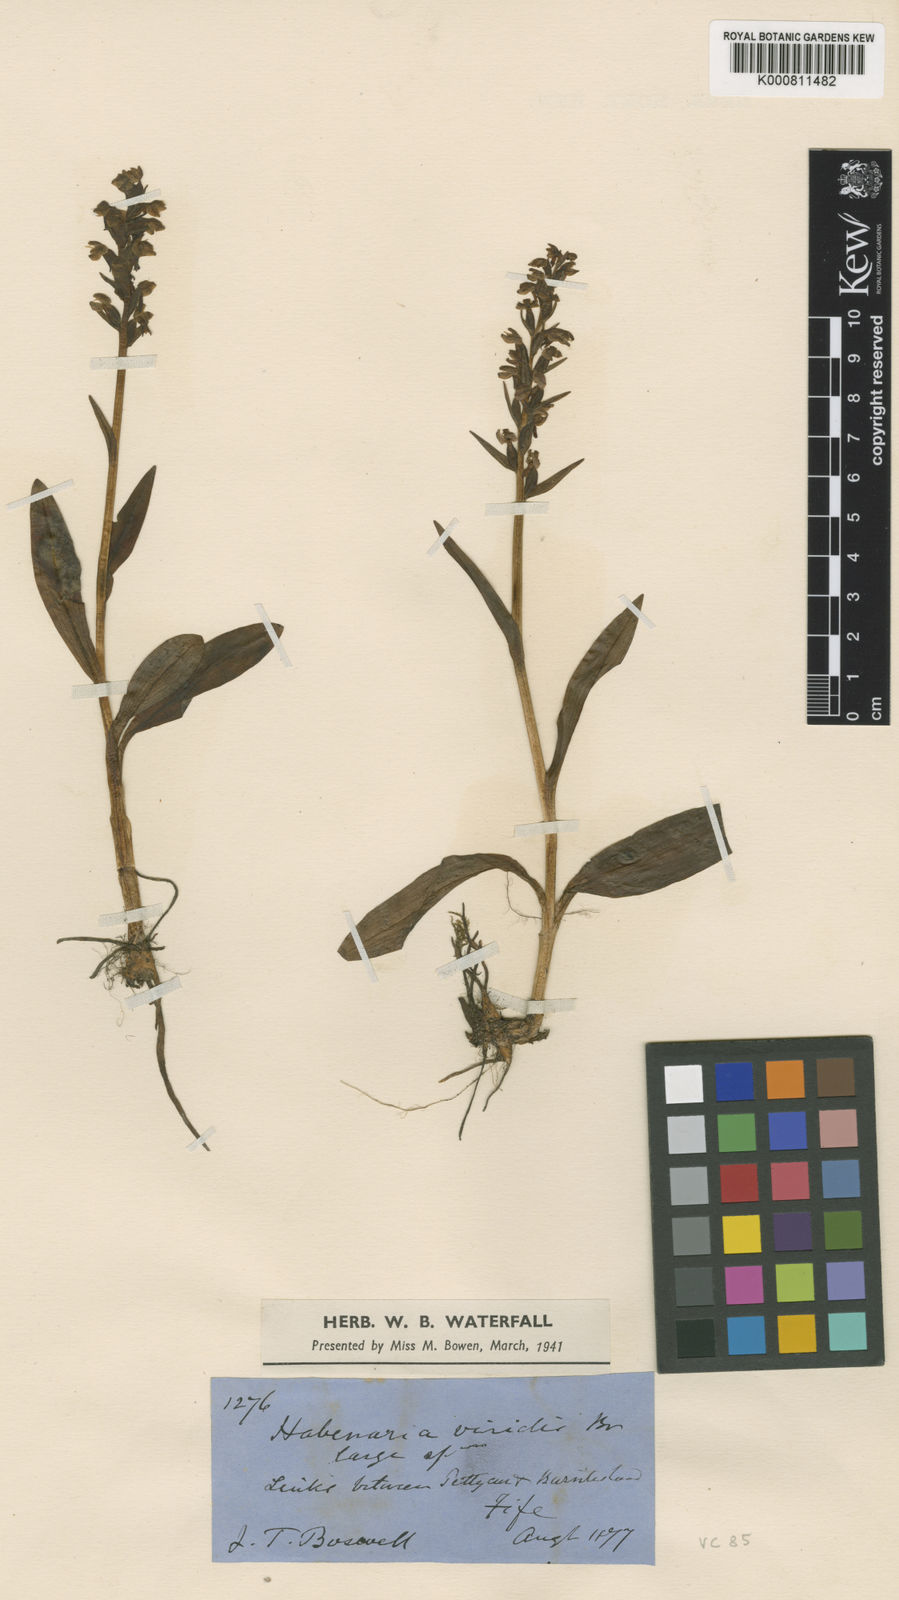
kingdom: Plantae
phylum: Tracheophyta
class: Liliopsida
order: Asparagales
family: Orchidaceae
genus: Dactylorhiza
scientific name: Dactylorhiza viridis
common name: Longbract frog orchid
